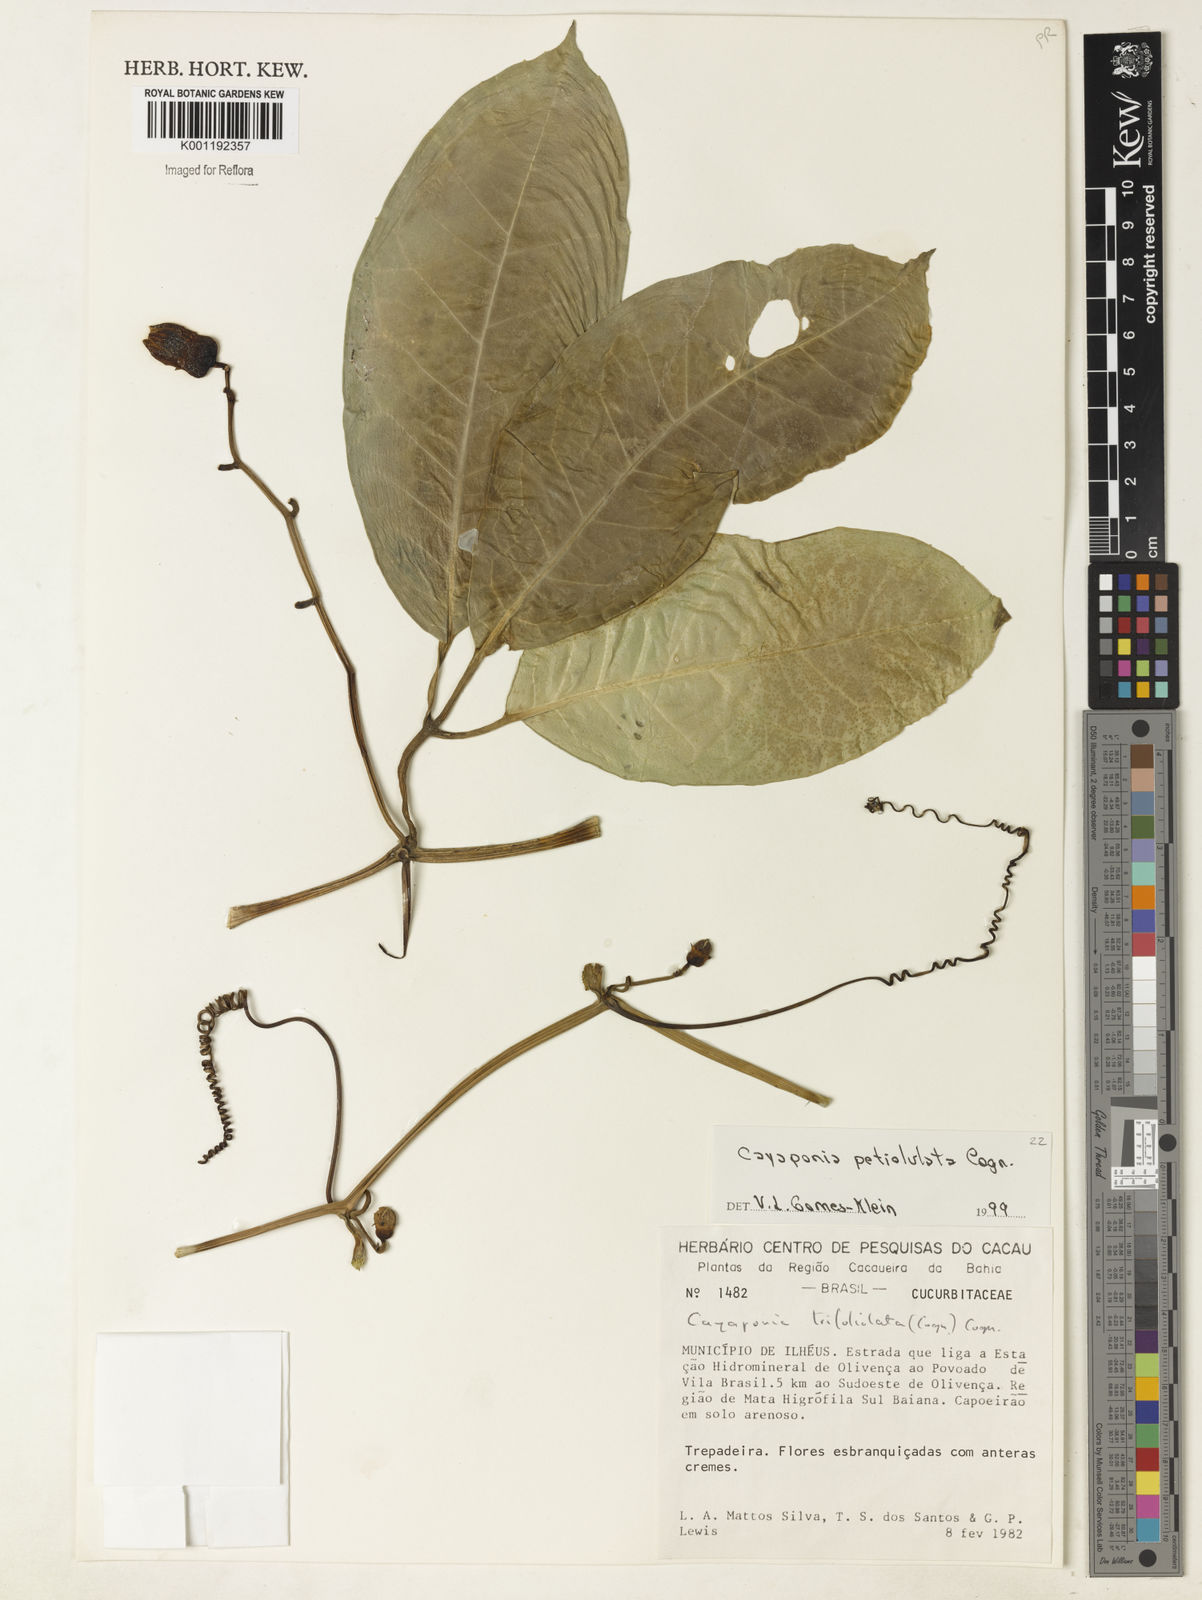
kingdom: Plantae
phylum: Tracheophyta
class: Magnoliopsida
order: Cucurbitales
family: Cucurbitaceae
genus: Cayaponia
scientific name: Cayaponia petiolulata
